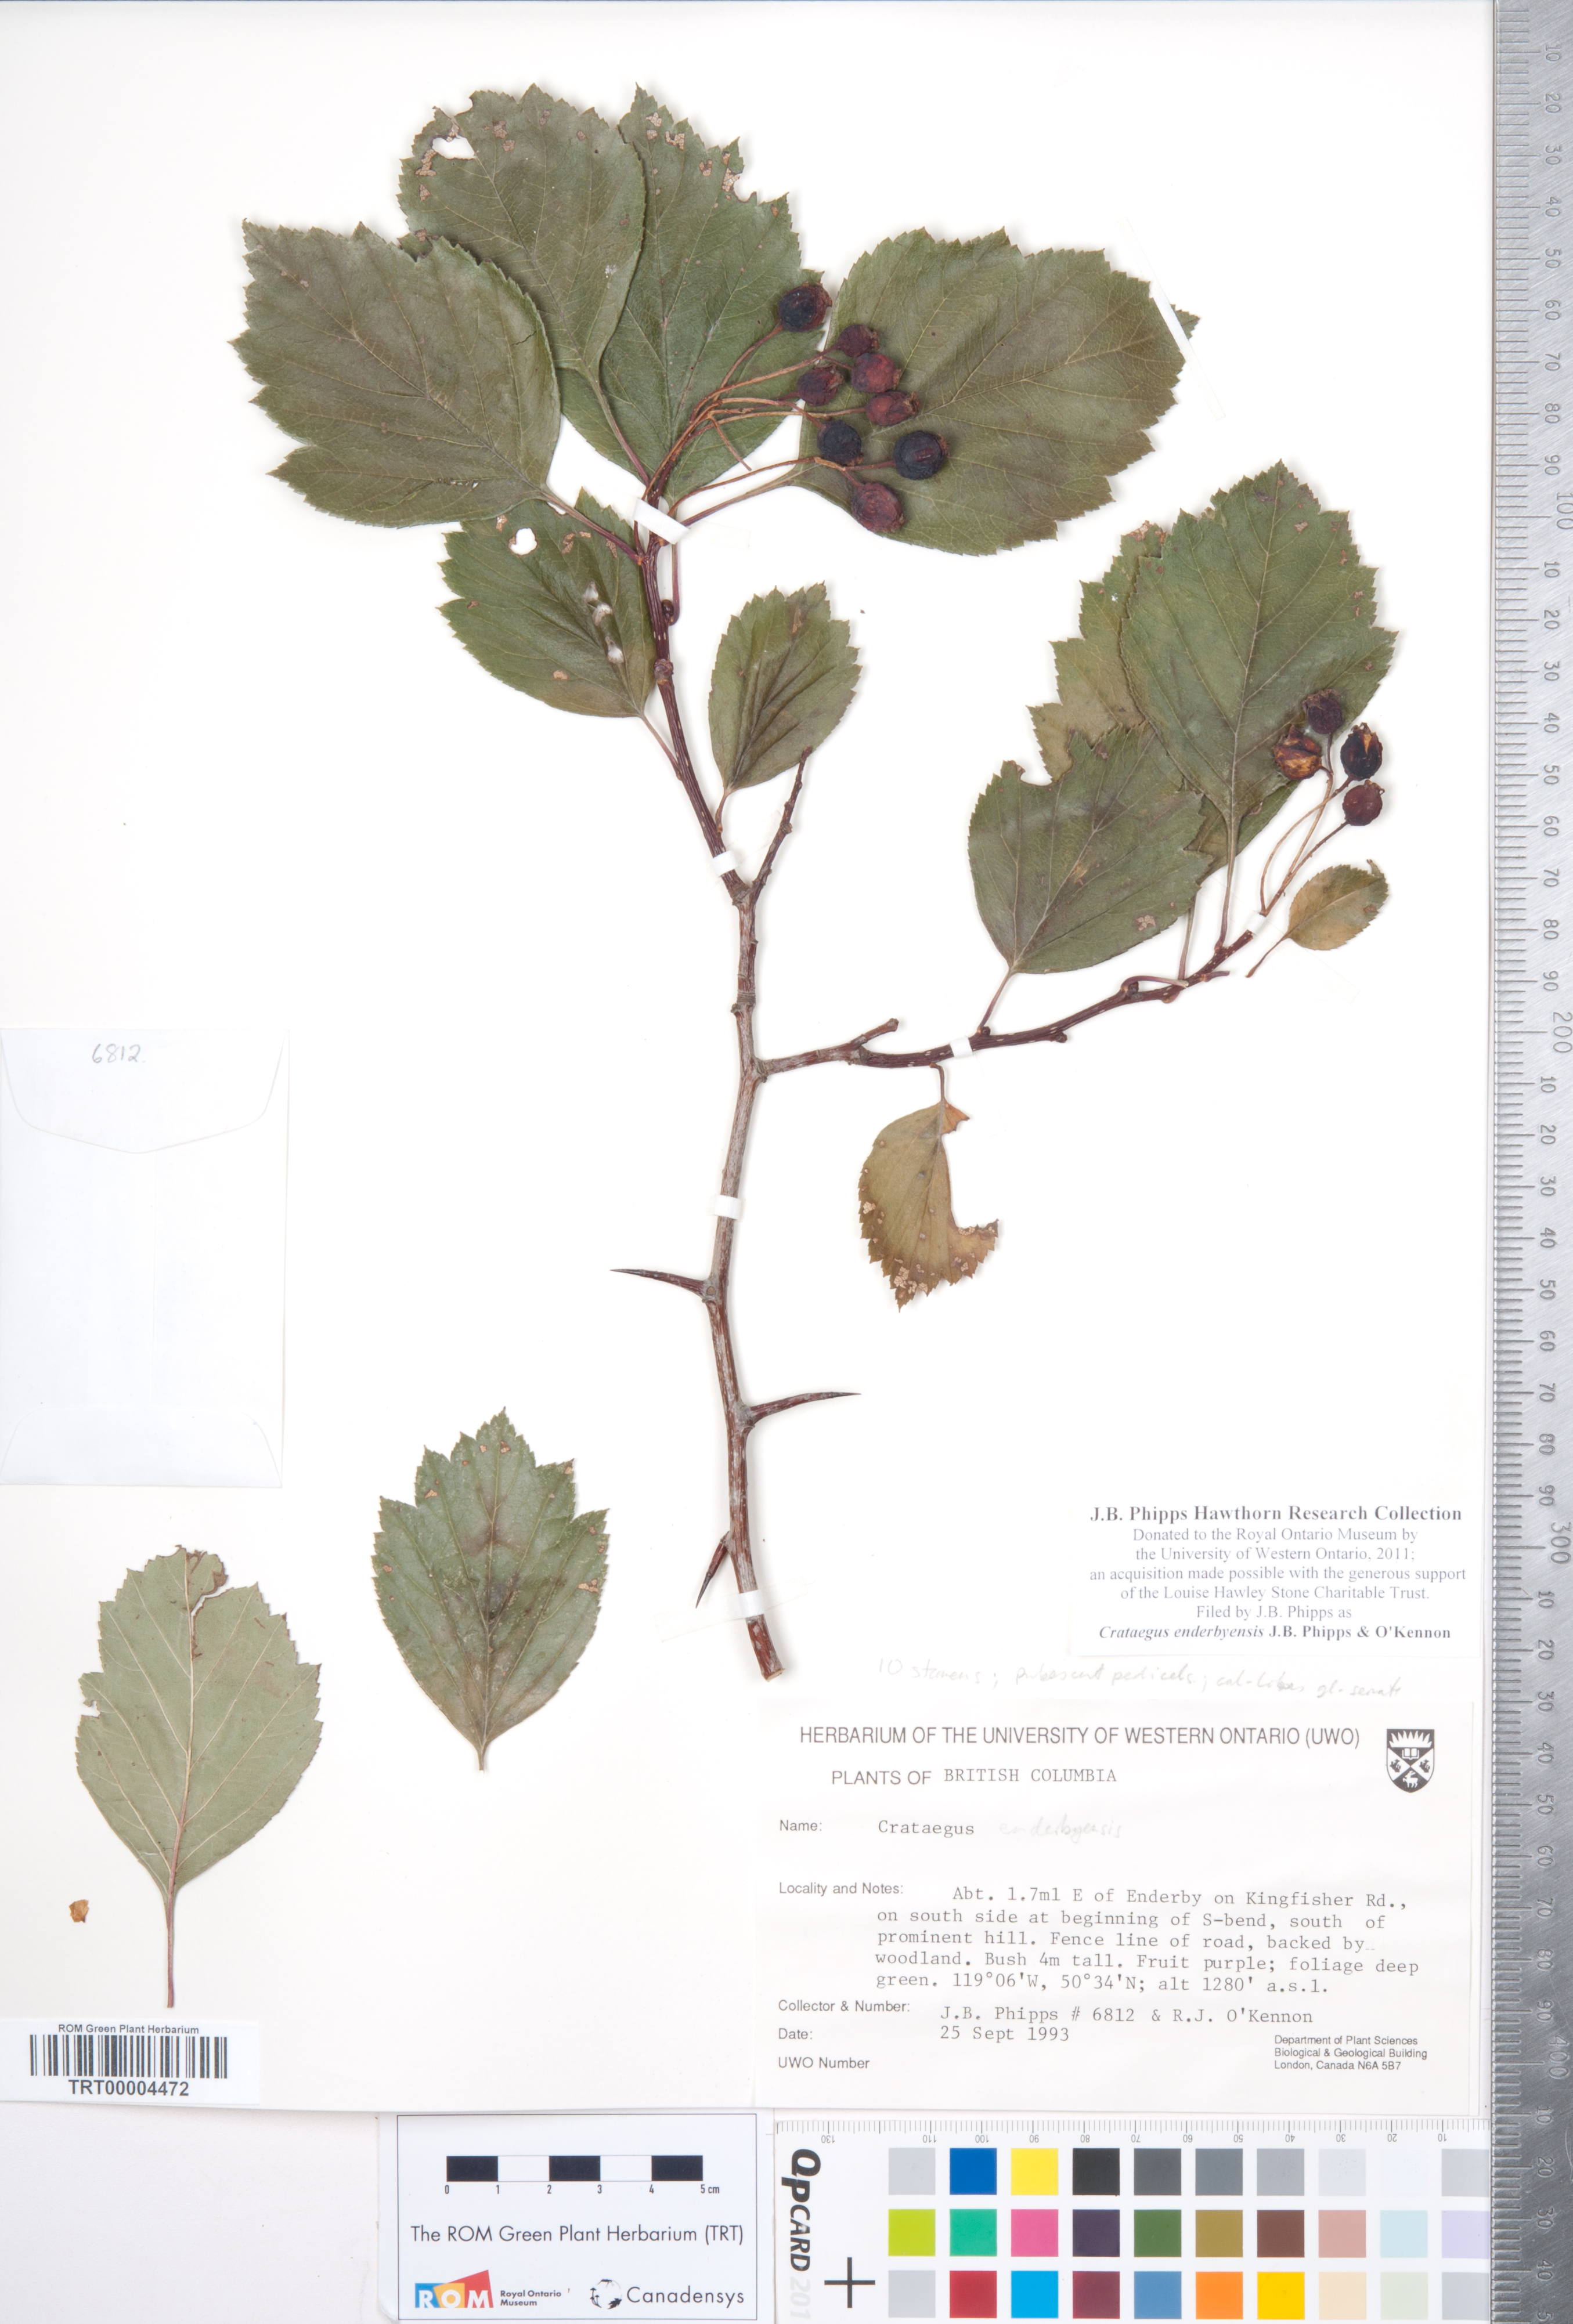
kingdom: Plantae
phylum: Tracheophyta
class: Magnoliopsida
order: Rosales
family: Rosaceae
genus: Crataegus
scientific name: Crataegus enderbyensis
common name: Enderby hawthorn
